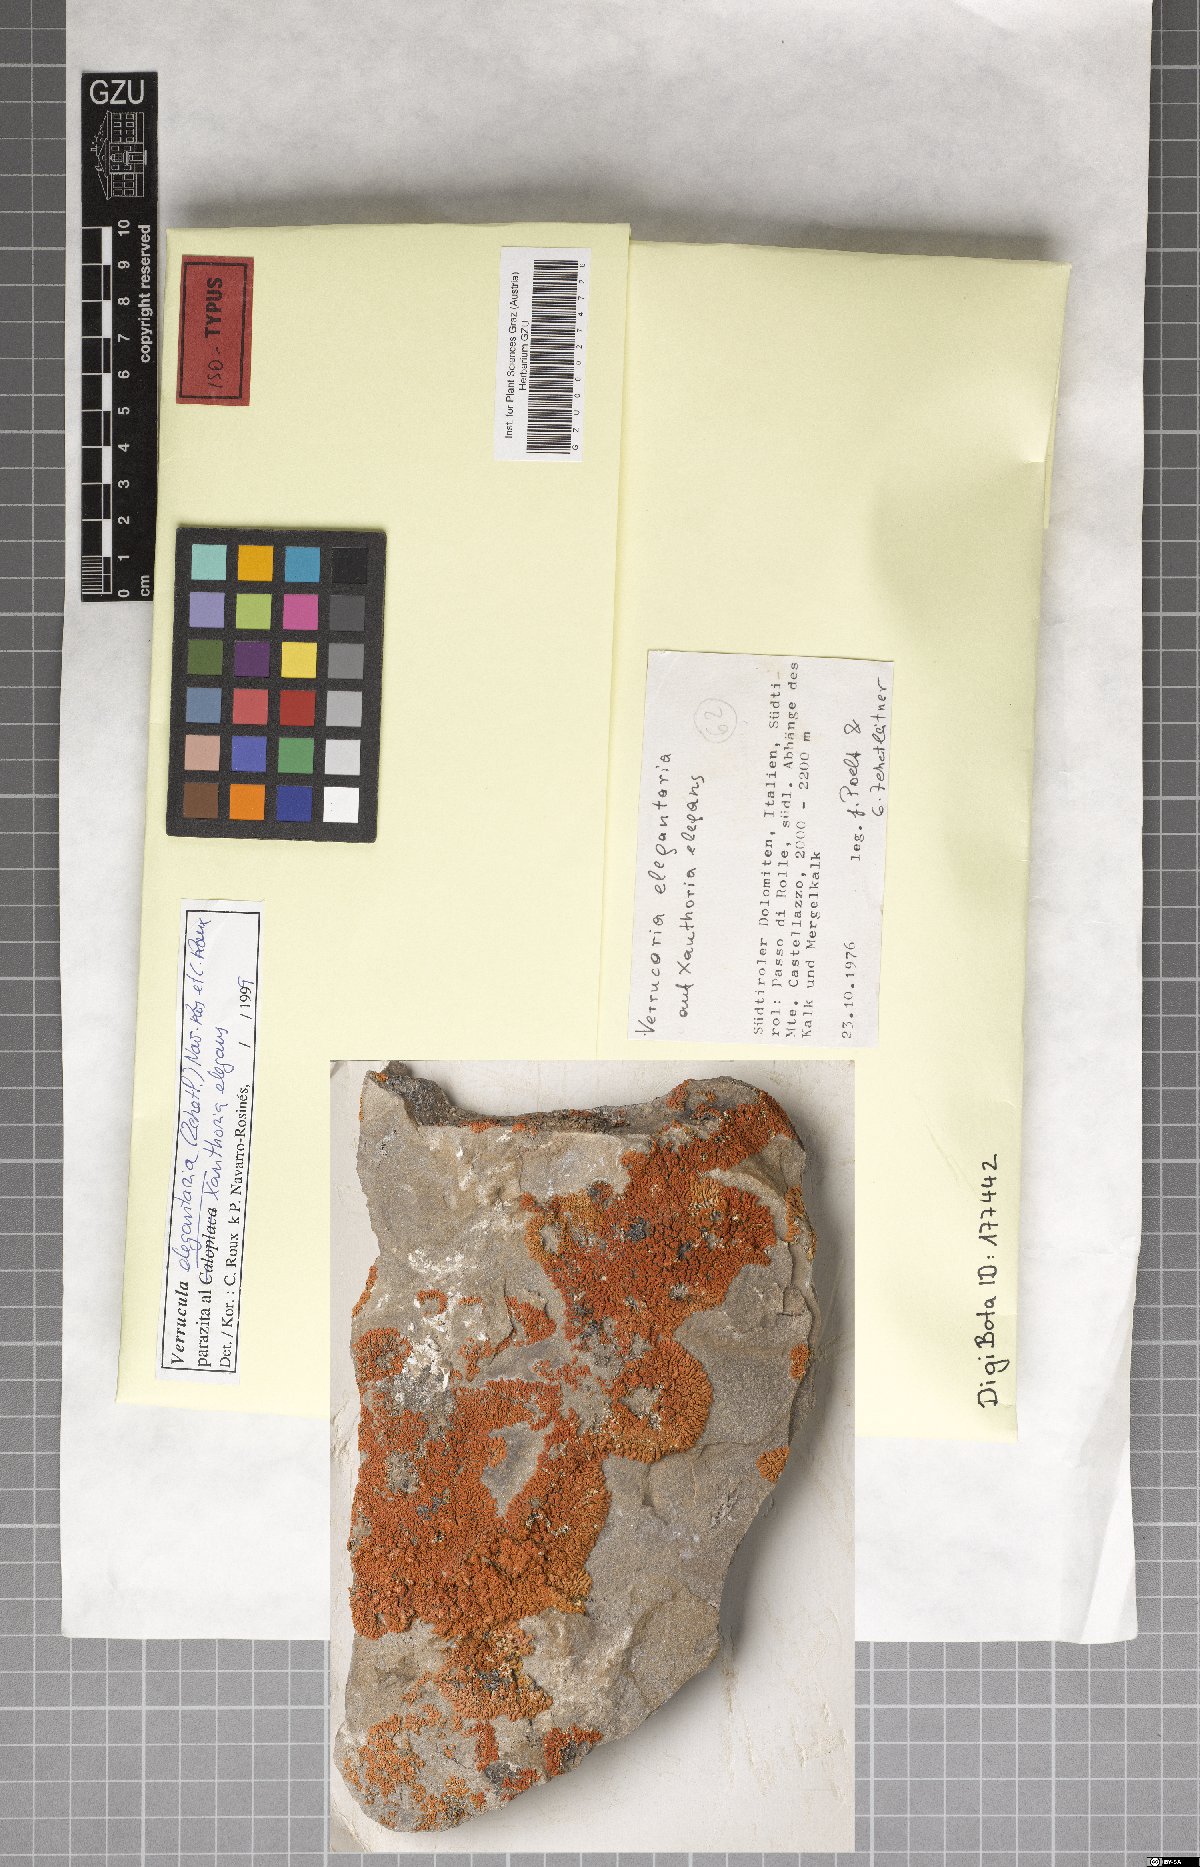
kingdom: Fungi
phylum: Ascomycota
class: Eurotiomycetes
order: Verrucariales
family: Verrucariaceae
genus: Verrucula
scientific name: Verrucula elegantaria
